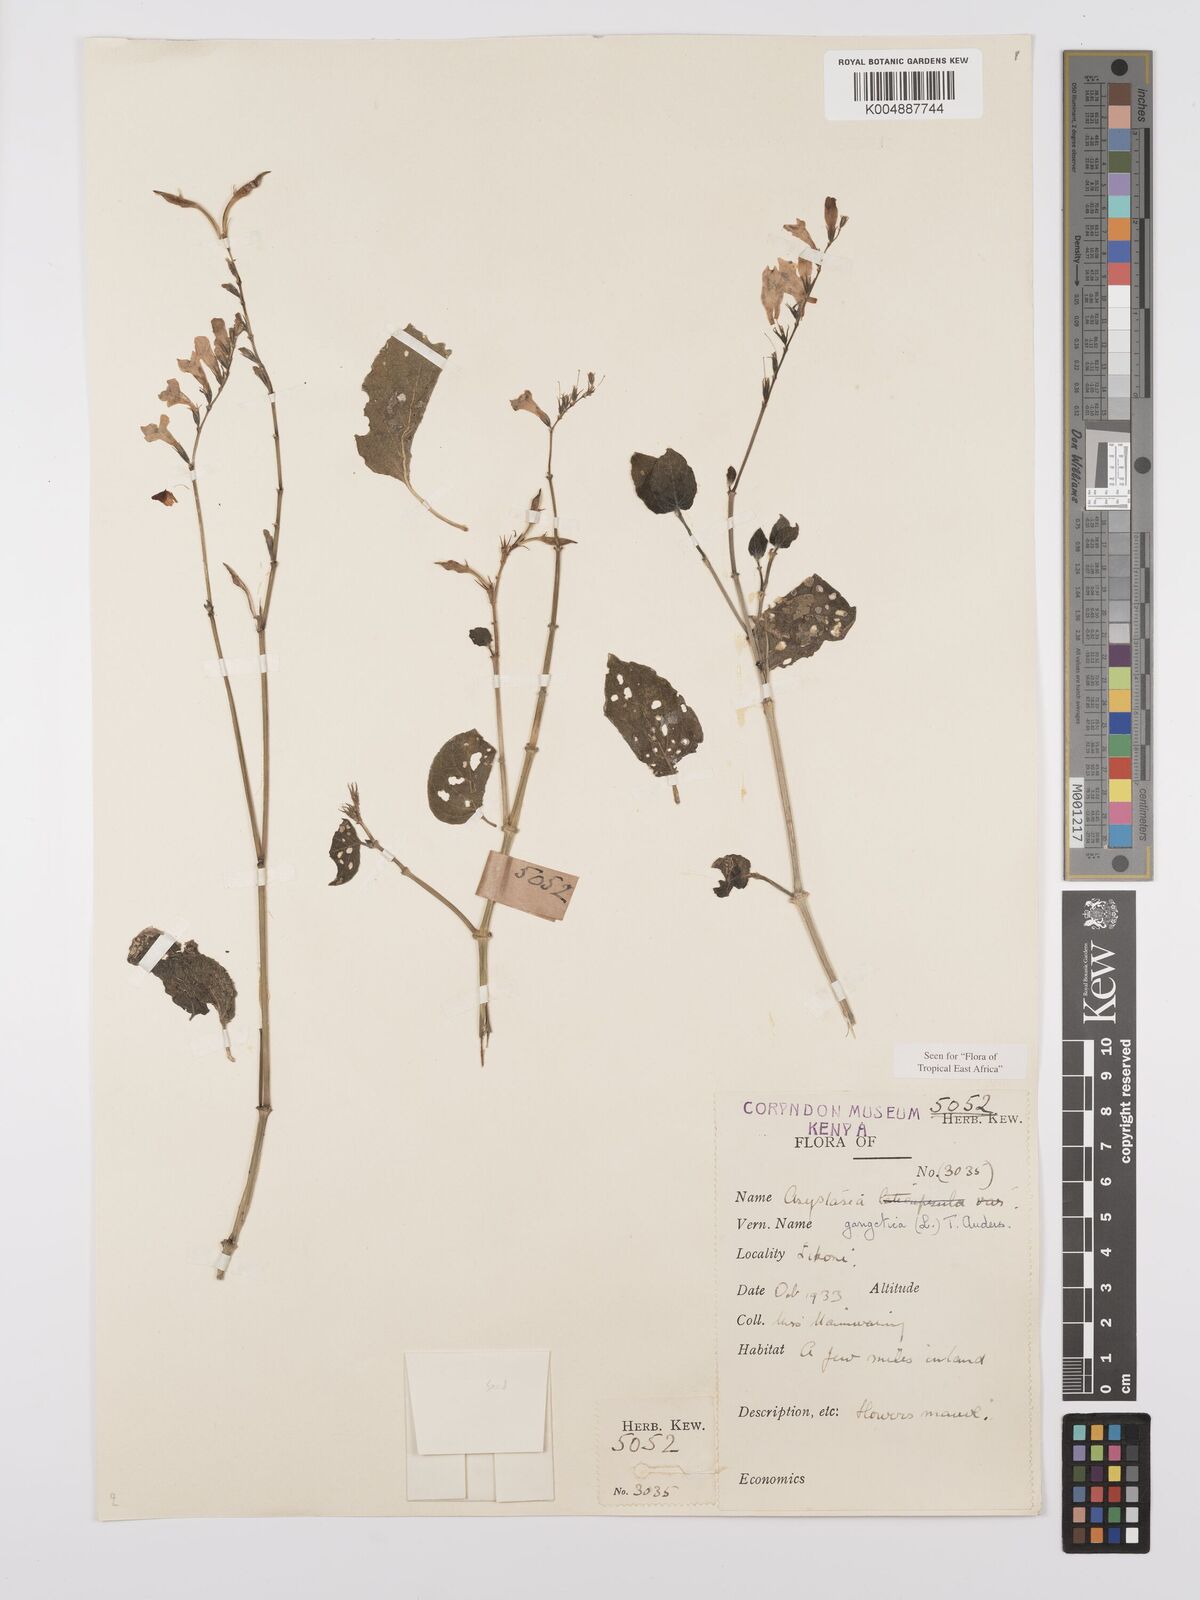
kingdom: Plantae
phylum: Tracheophyta
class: Magnoliopsida
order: Lamiales
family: Acanthaceae
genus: Asystasia
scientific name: Asystasia gangetica
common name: Chinese violet
